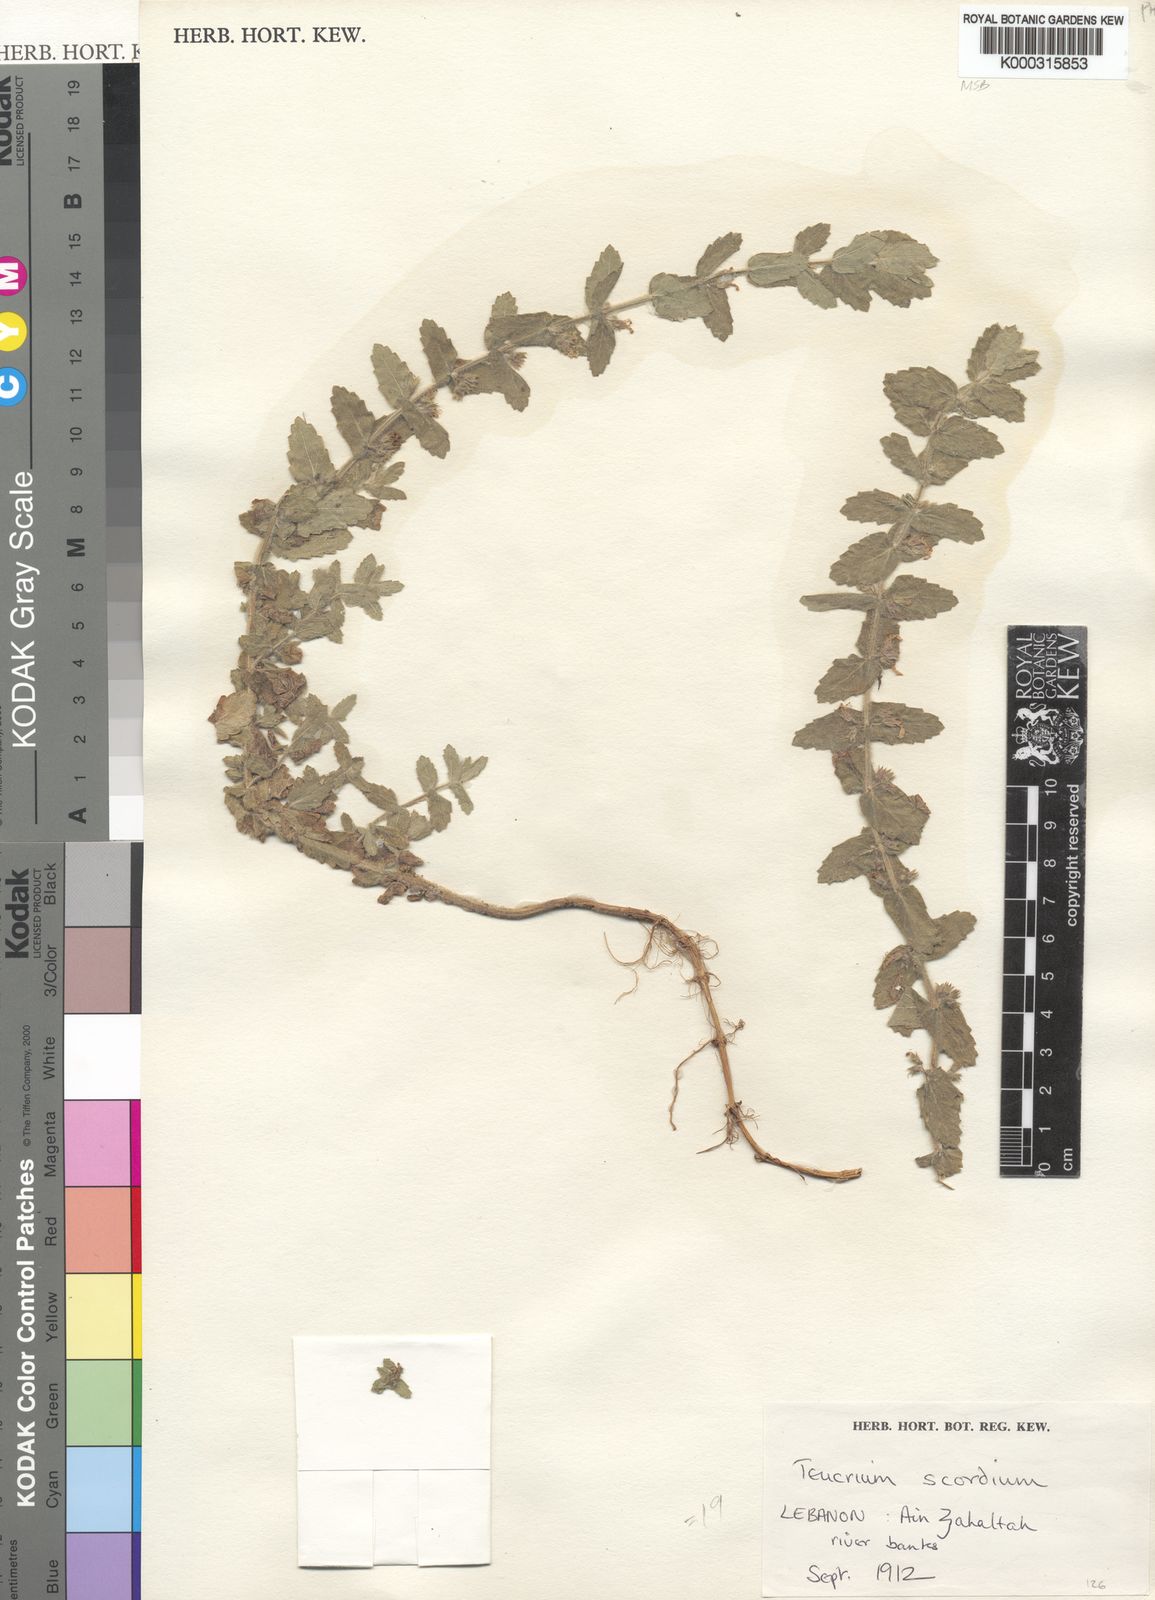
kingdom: Plantae
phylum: Tracheophyta
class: Magnoliopsida
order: Lamiales
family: Lamiaceae
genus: Teucrium
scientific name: Teucrium scordium
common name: Water germander
